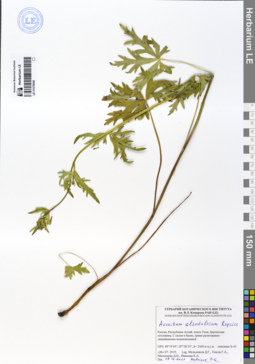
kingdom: Plantae
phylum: Tracheophyta
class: Magnoliopsida
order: Ranunculales
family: Ranunculaceae
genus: Aconitum
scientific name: Aconitum glandulosum
